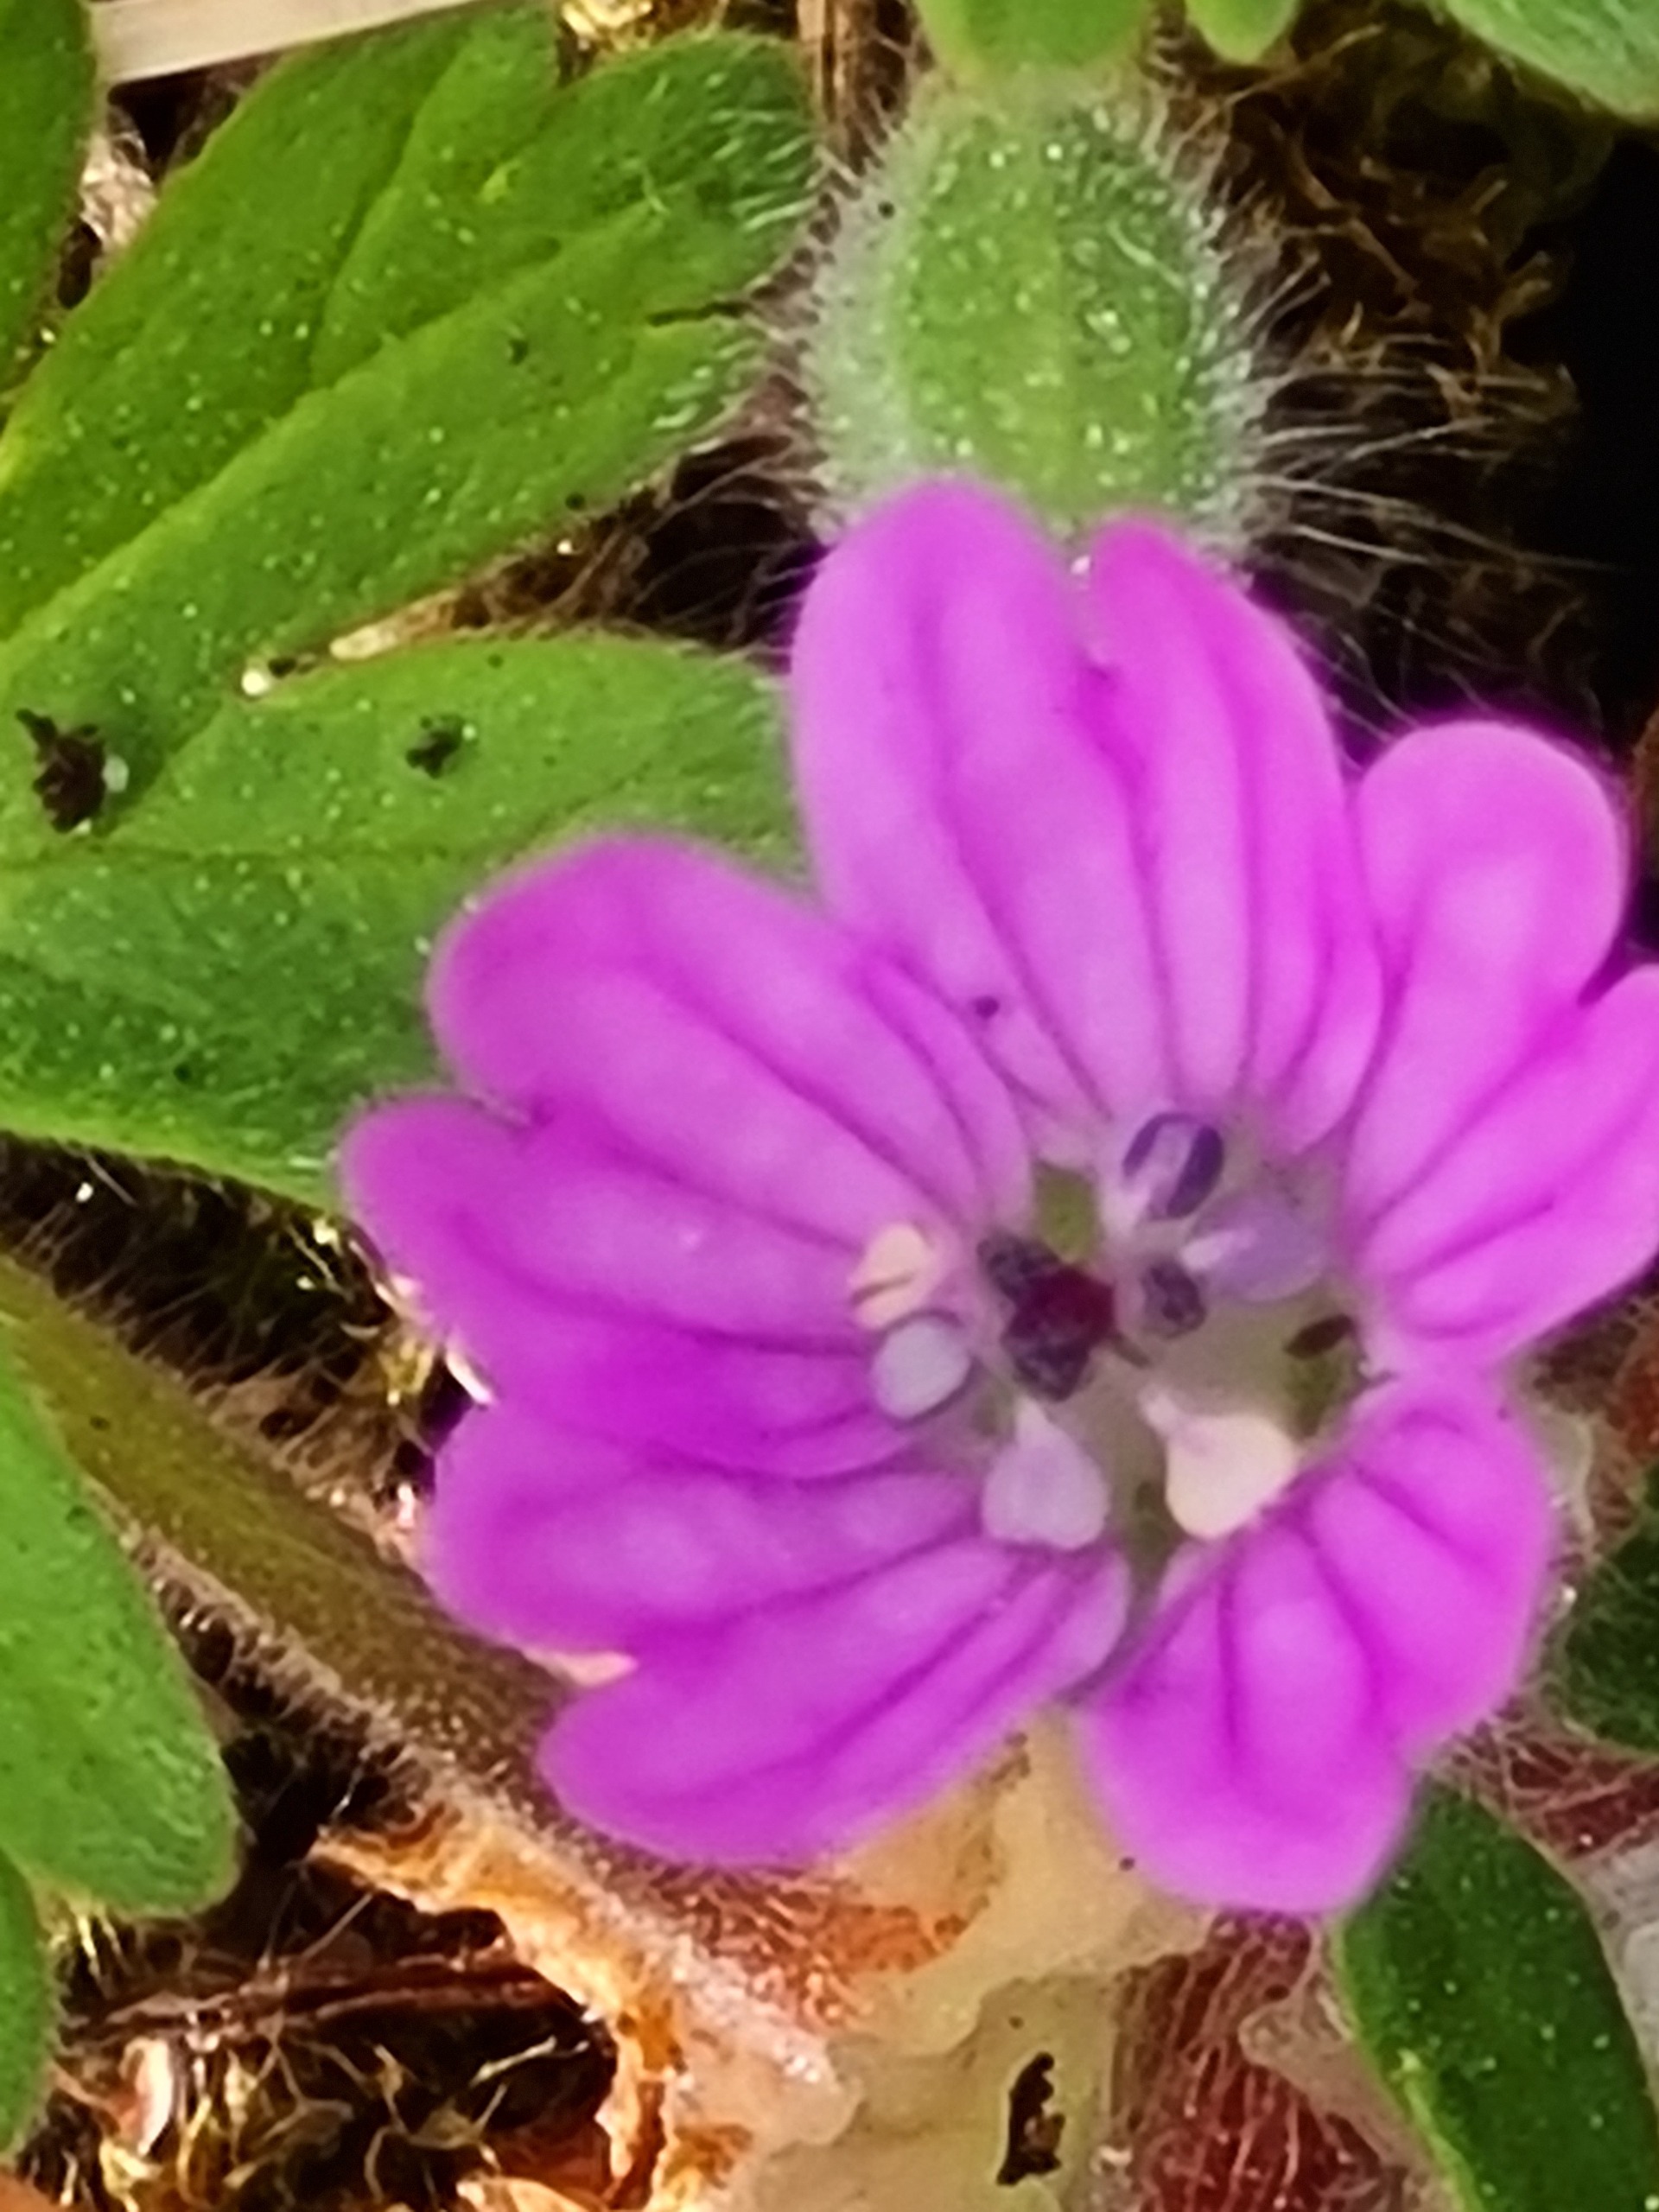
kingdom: Plantae
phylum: Tracheophyta
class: Magnoliopsida
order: Geraniales
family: Geraniaceae
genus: Geranium
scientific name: Geranium molle
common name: Blød storkenæb
